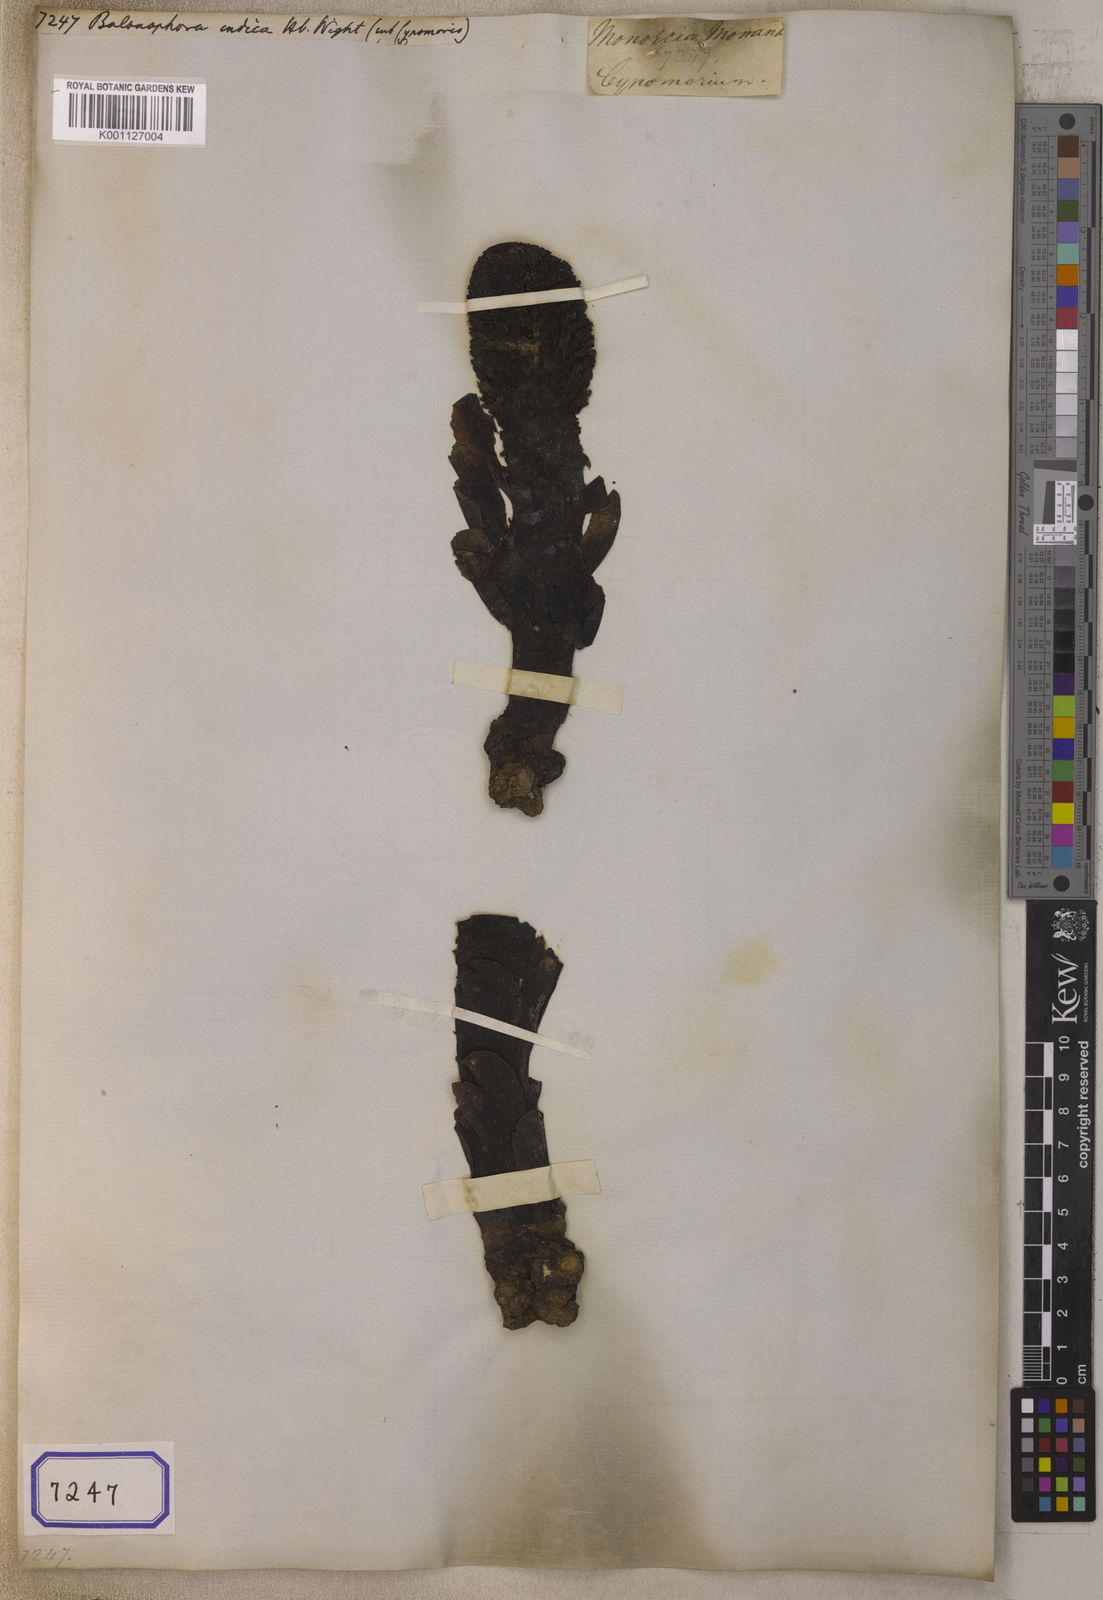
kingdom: Plantae
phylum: Tracheophyta
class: Magnoliopsida
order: Santalales
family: Balanophoraceae
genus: Balanophora
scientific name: Balanophora
